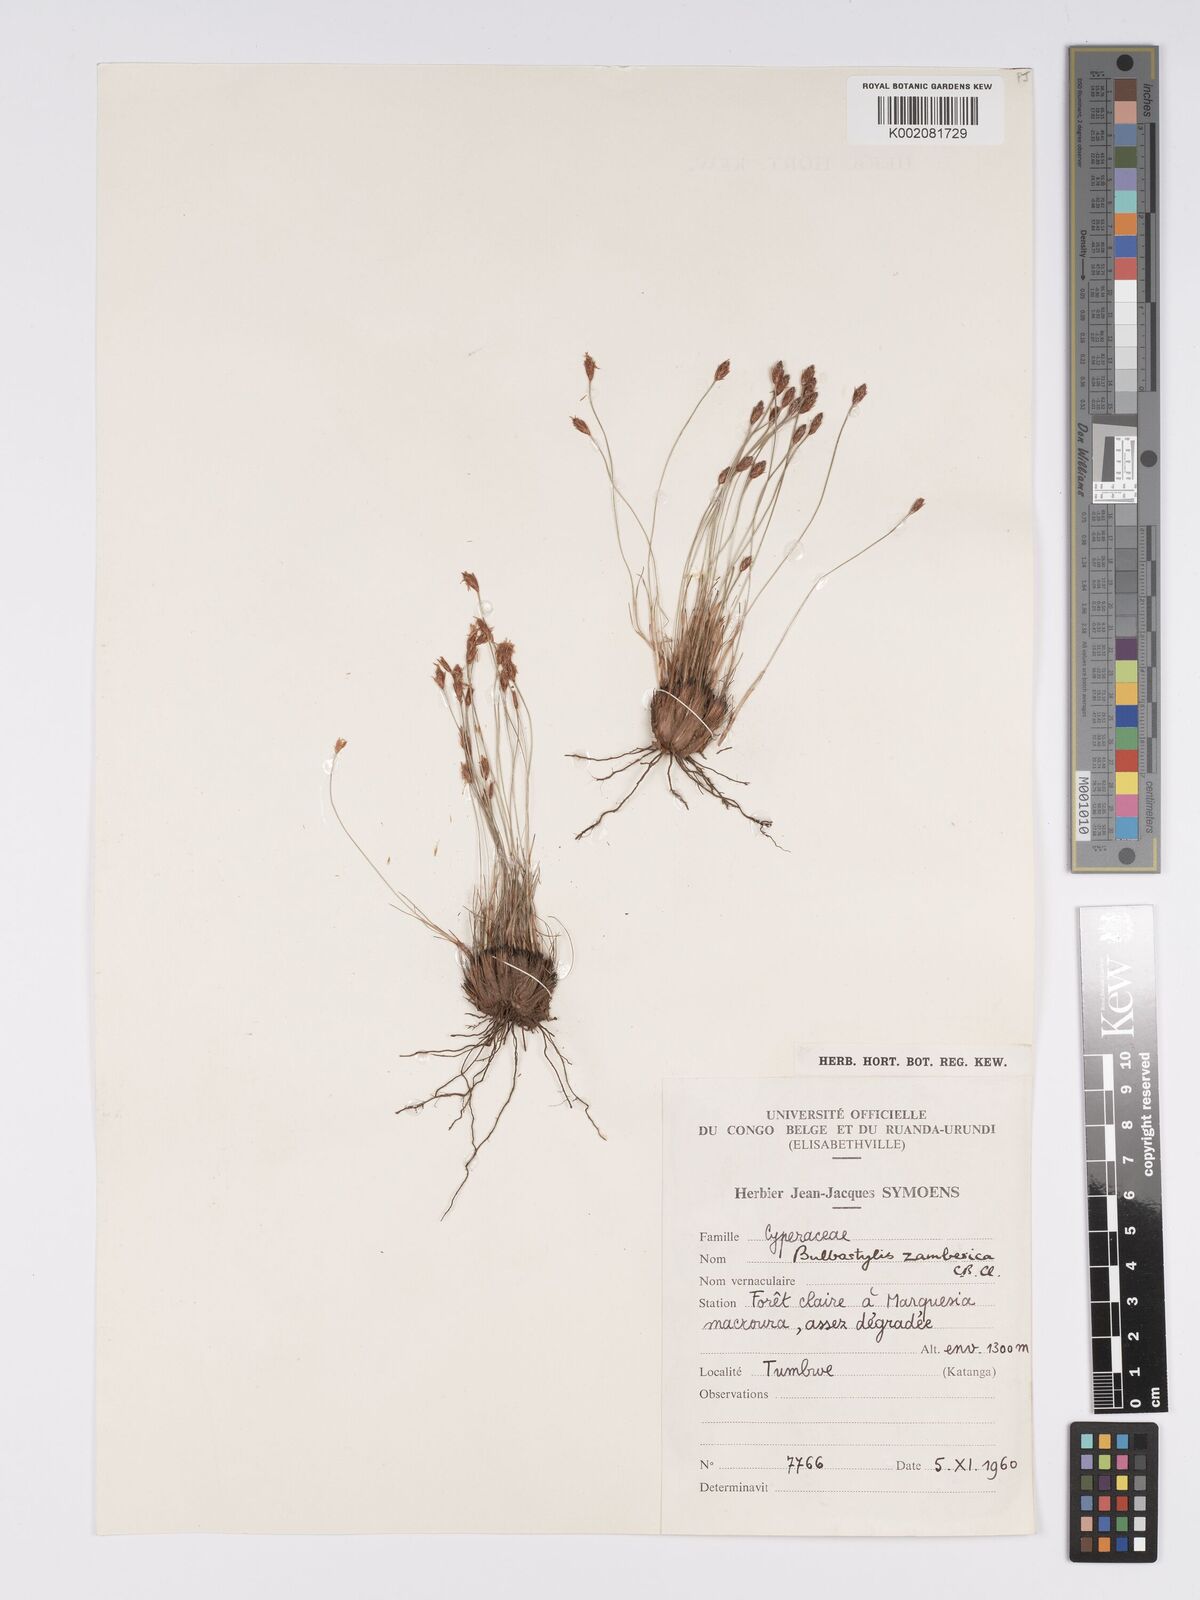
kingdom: Plantae
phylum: Tracheophyta
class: Liliopsida
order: Poales
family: Cyperaceae
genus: Bulbostylis
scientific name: Bulbostylis macra
